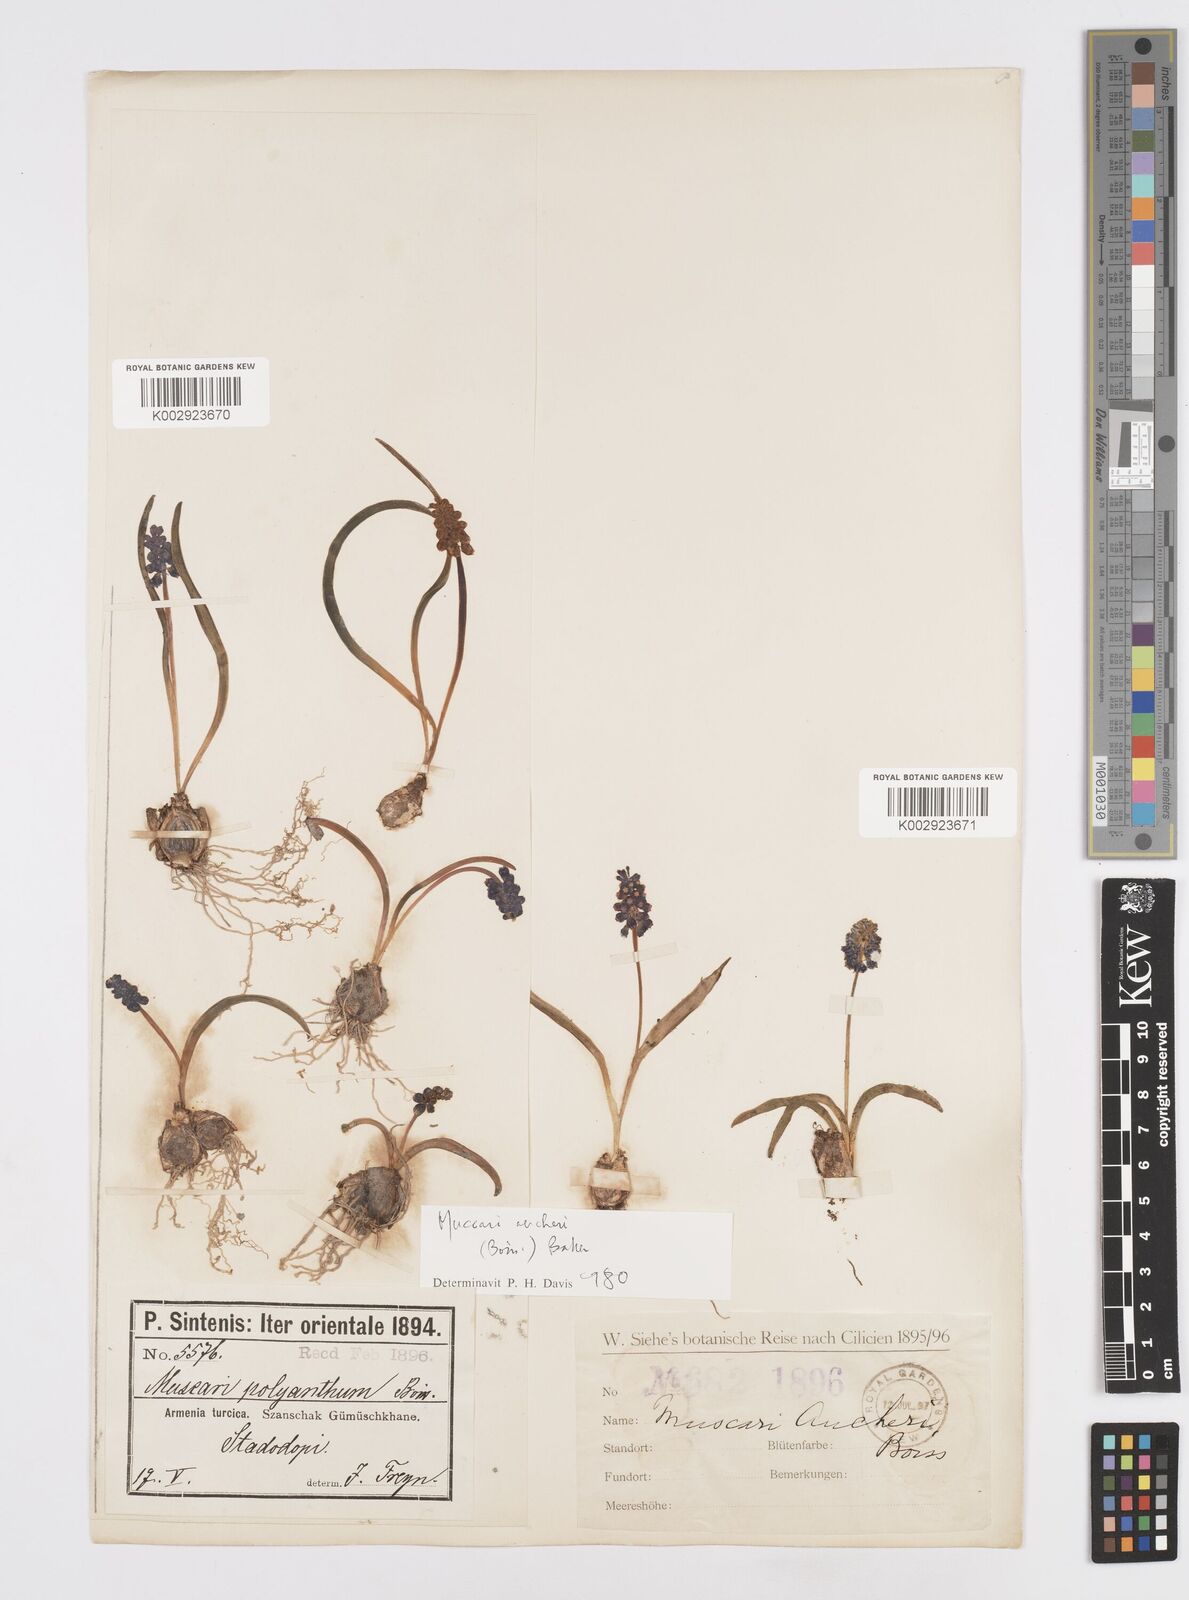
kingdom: Plantae
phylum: Tracheophyta
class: Liliopsida
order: Asparagales
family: Asparagaceae
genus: Muscari
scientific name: Muscari aucheri
